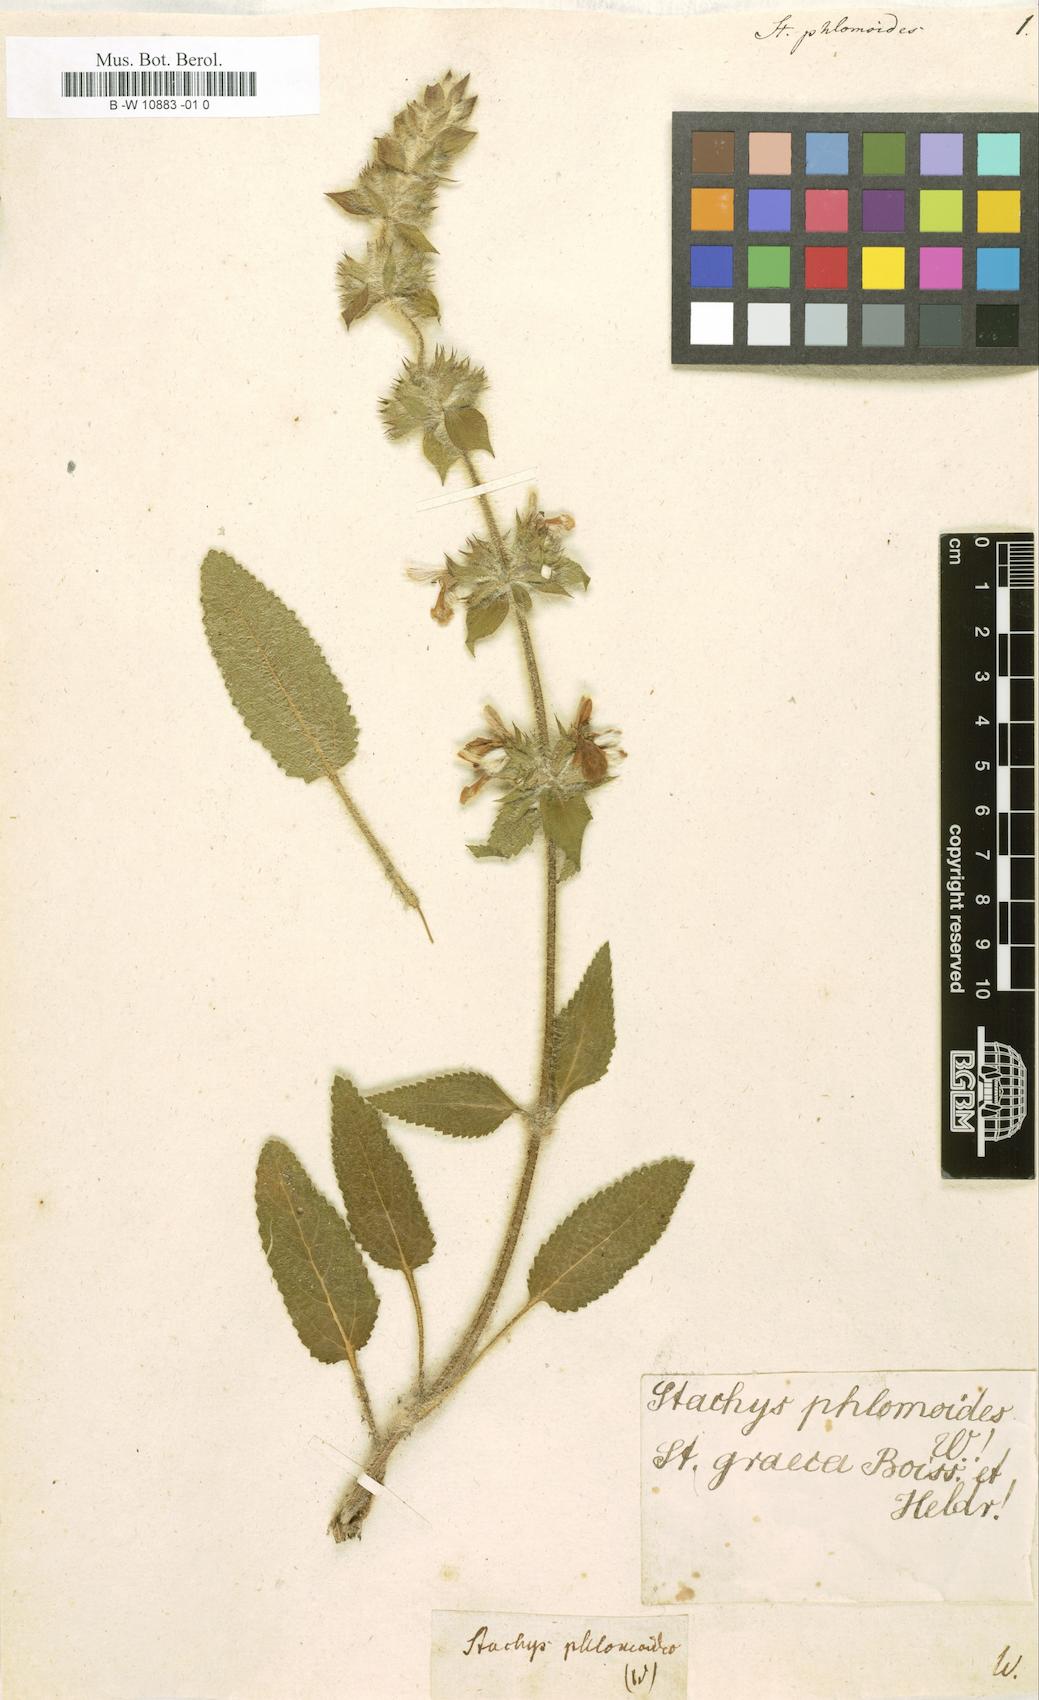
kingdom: Plantae
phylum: Tracheophyta
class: Magnoliopsida
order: Lamiales
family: Lamiaceae
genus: Stachys
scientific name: Stachys heraclea
